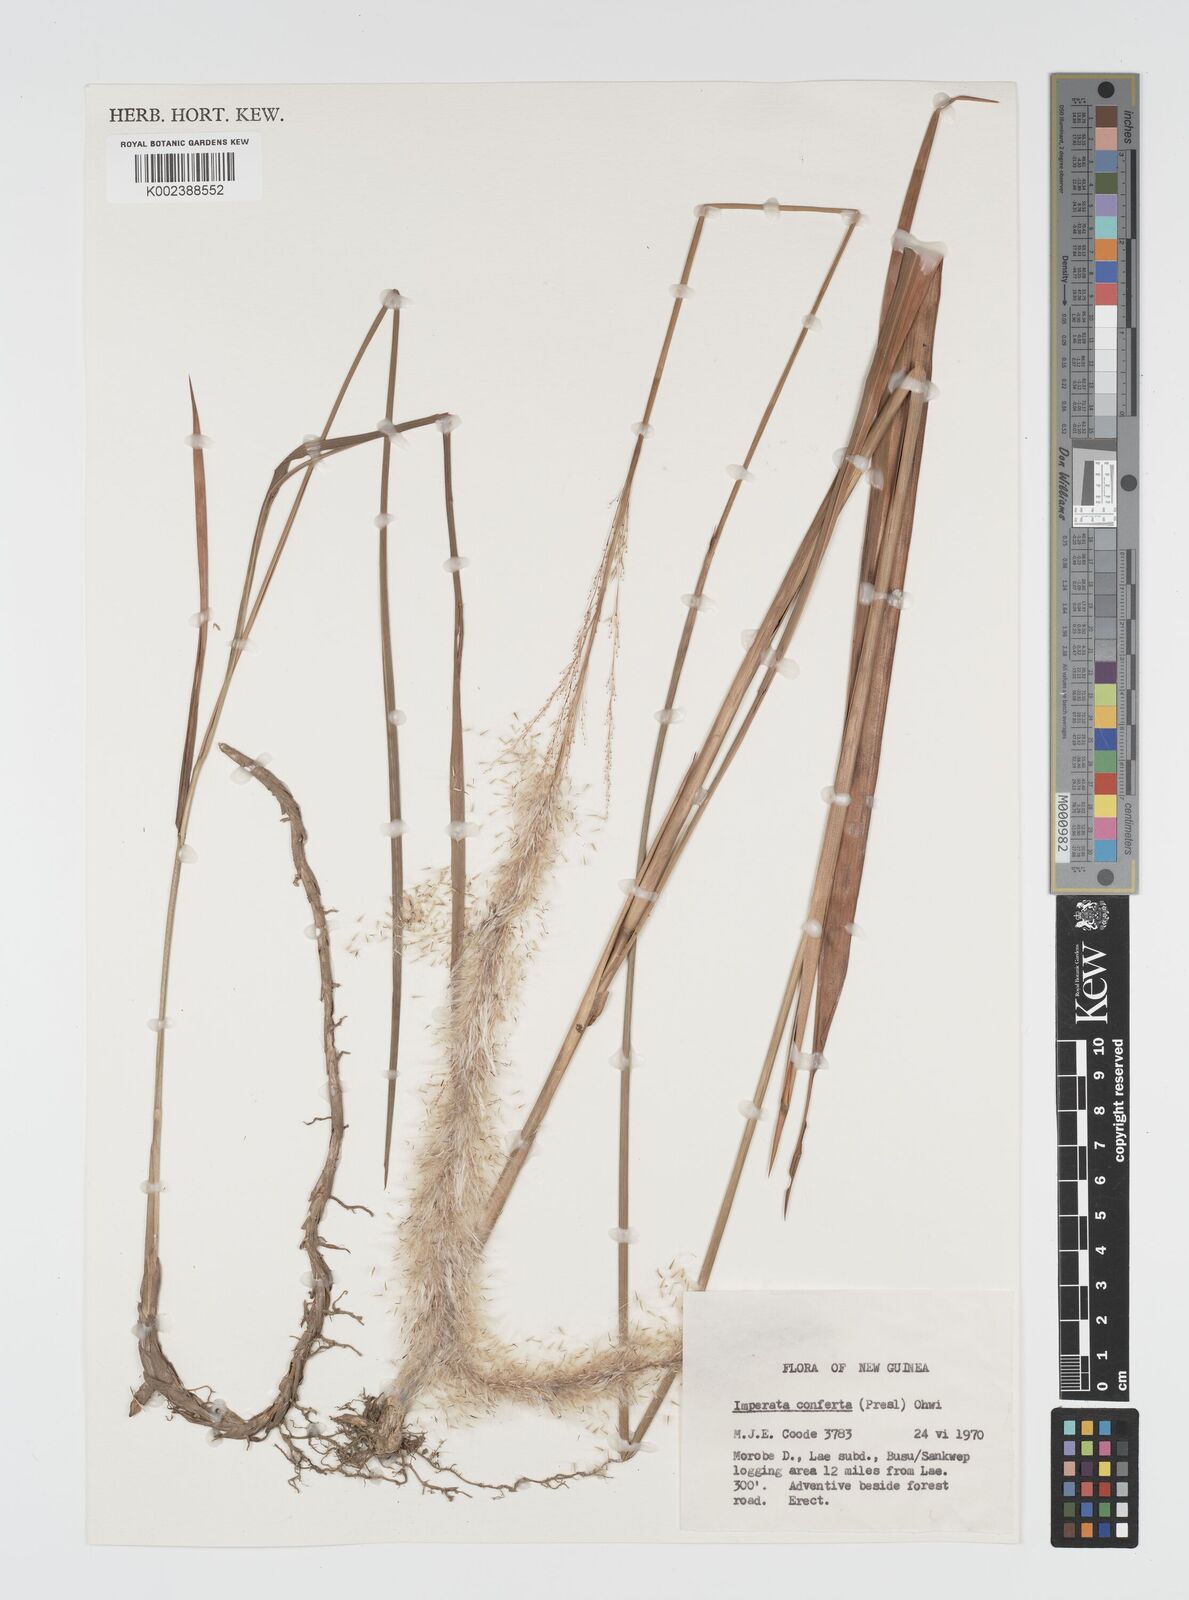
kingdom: Plantae
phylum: Tracheophyta
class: Liliopsida
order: Poales
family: Poaceae
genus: Imperata
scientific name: Imperata conferta
